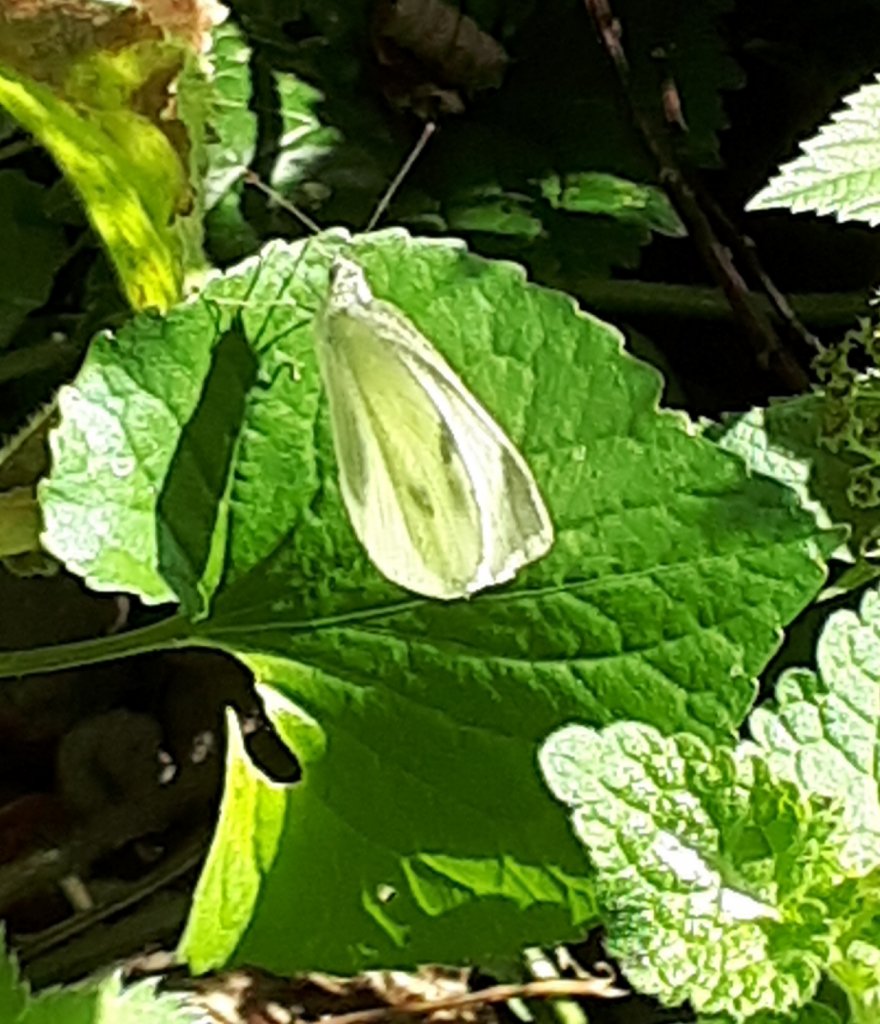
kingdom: Animalia
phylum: Arthropoda
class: Insecta
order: Lepidoptera
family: Pieridae
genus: Pieris
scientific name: Pieris rapae
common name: Cabbage White
